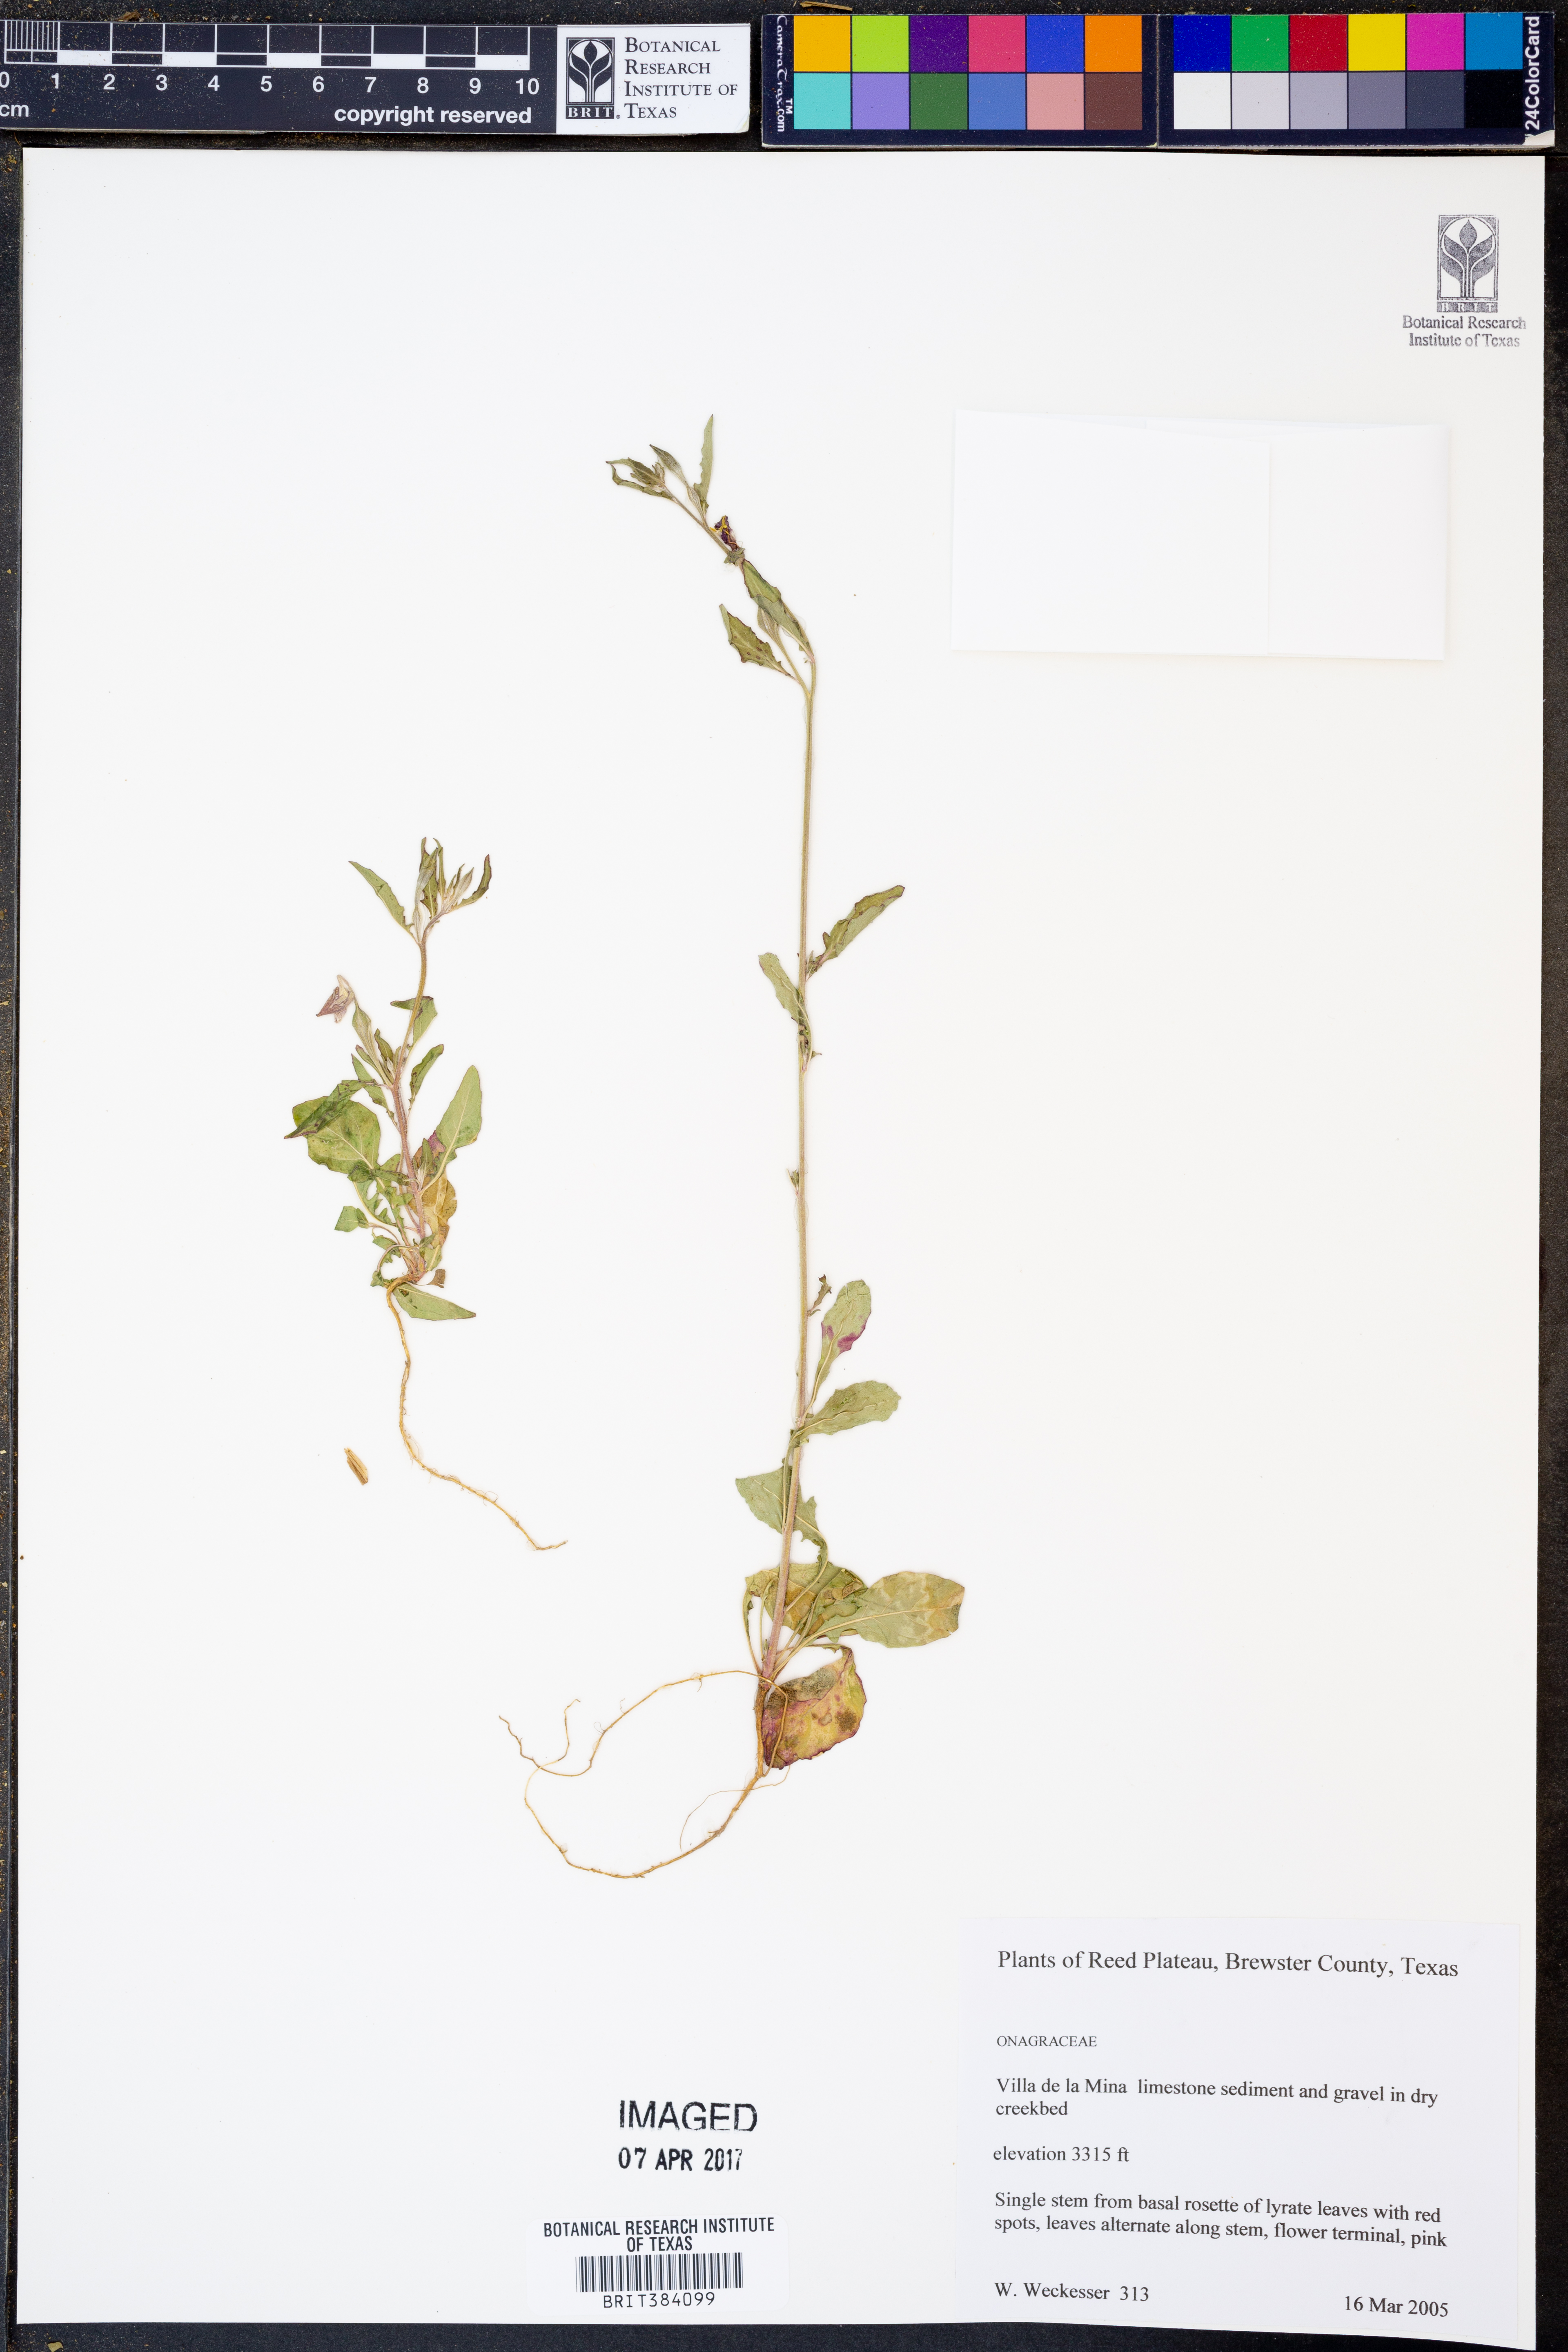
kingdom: Plantae
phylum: Tracheophyta
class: Magnoliopsida
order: Myrtales
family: Onagraceae
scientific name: Onagraceae
